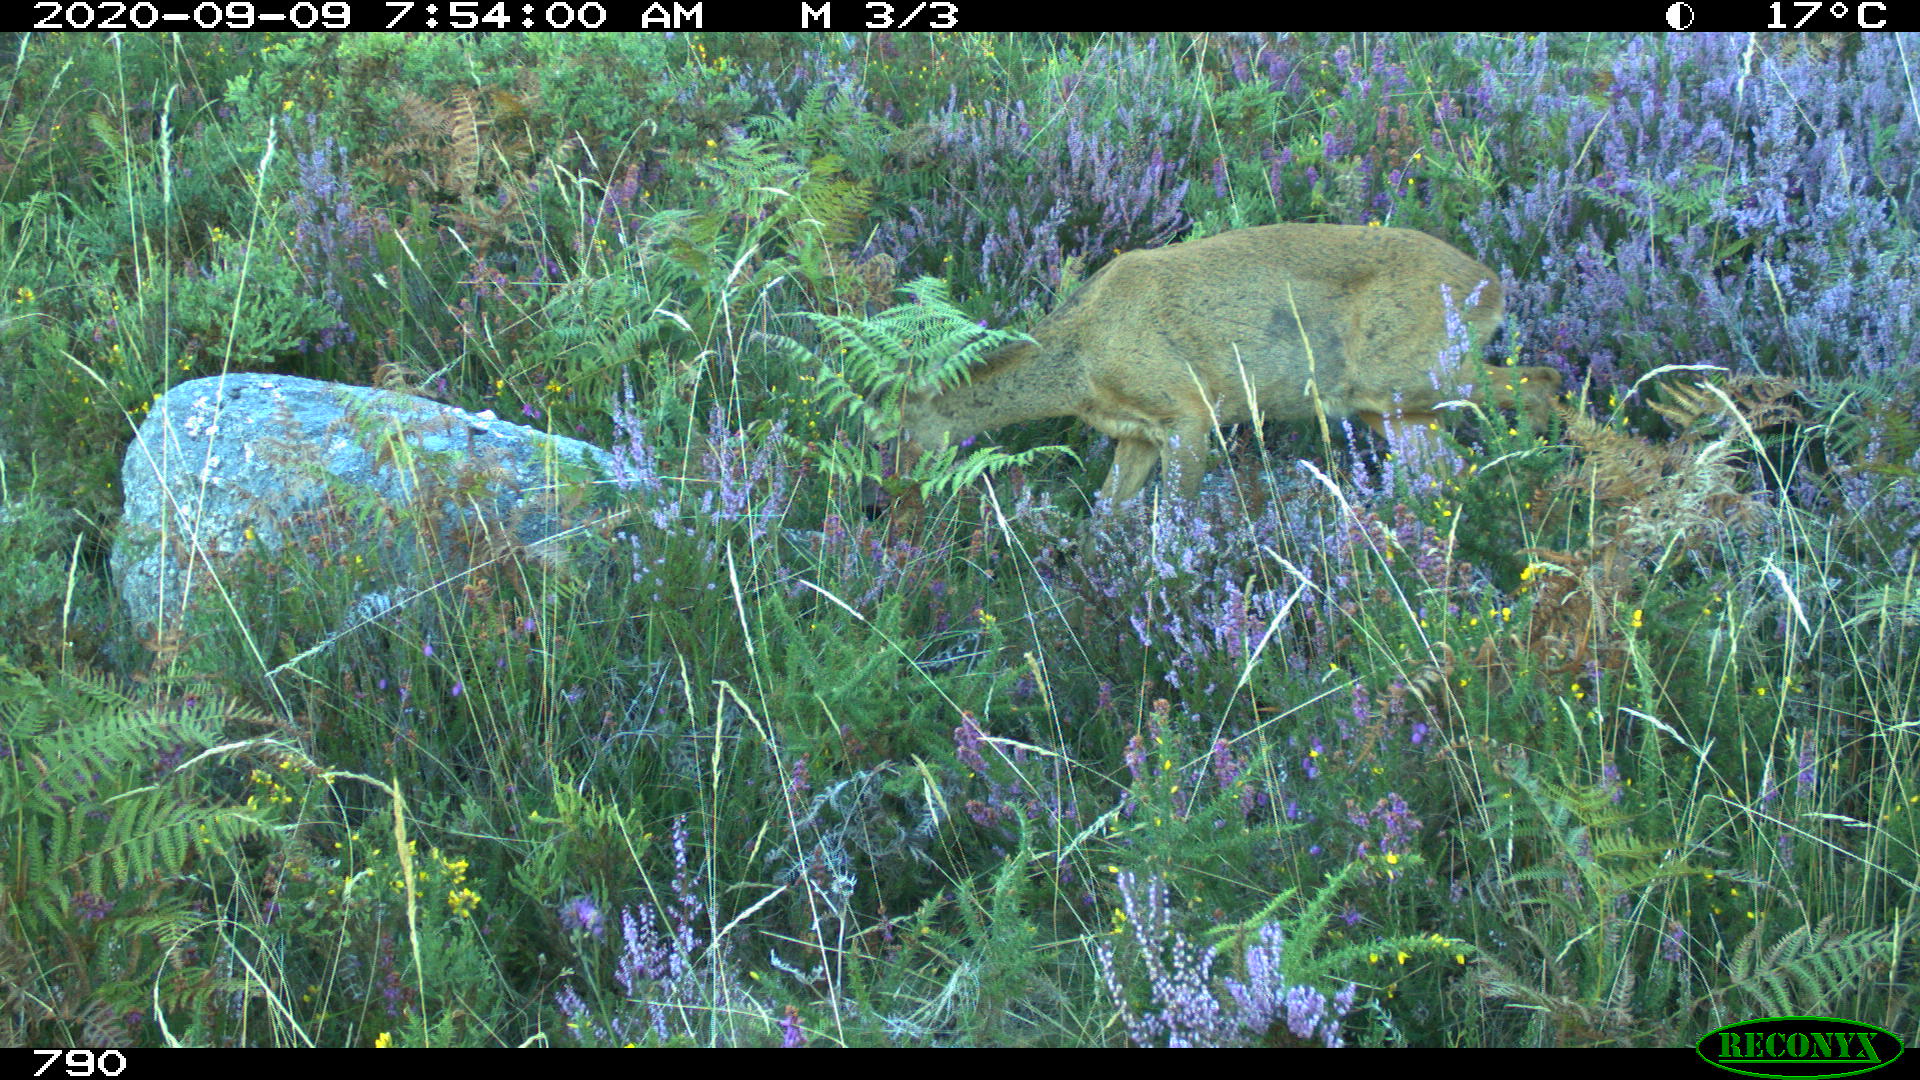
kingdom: Animalia
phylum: Chordata
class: Mammalia
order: Artiodactyla
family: Cervidae
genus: Capreolus
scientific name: Capreolus capreolus
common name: Western roe deer
